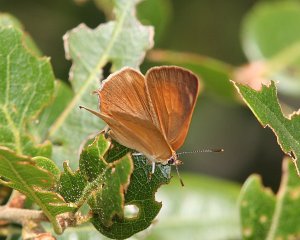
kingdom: Animalia
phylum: Arthropoda
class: Insecta
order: Lepidoptera
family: Lycaenidae
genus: Habrodais
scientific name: Habrodais grunus
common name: Golden Hairstreak
